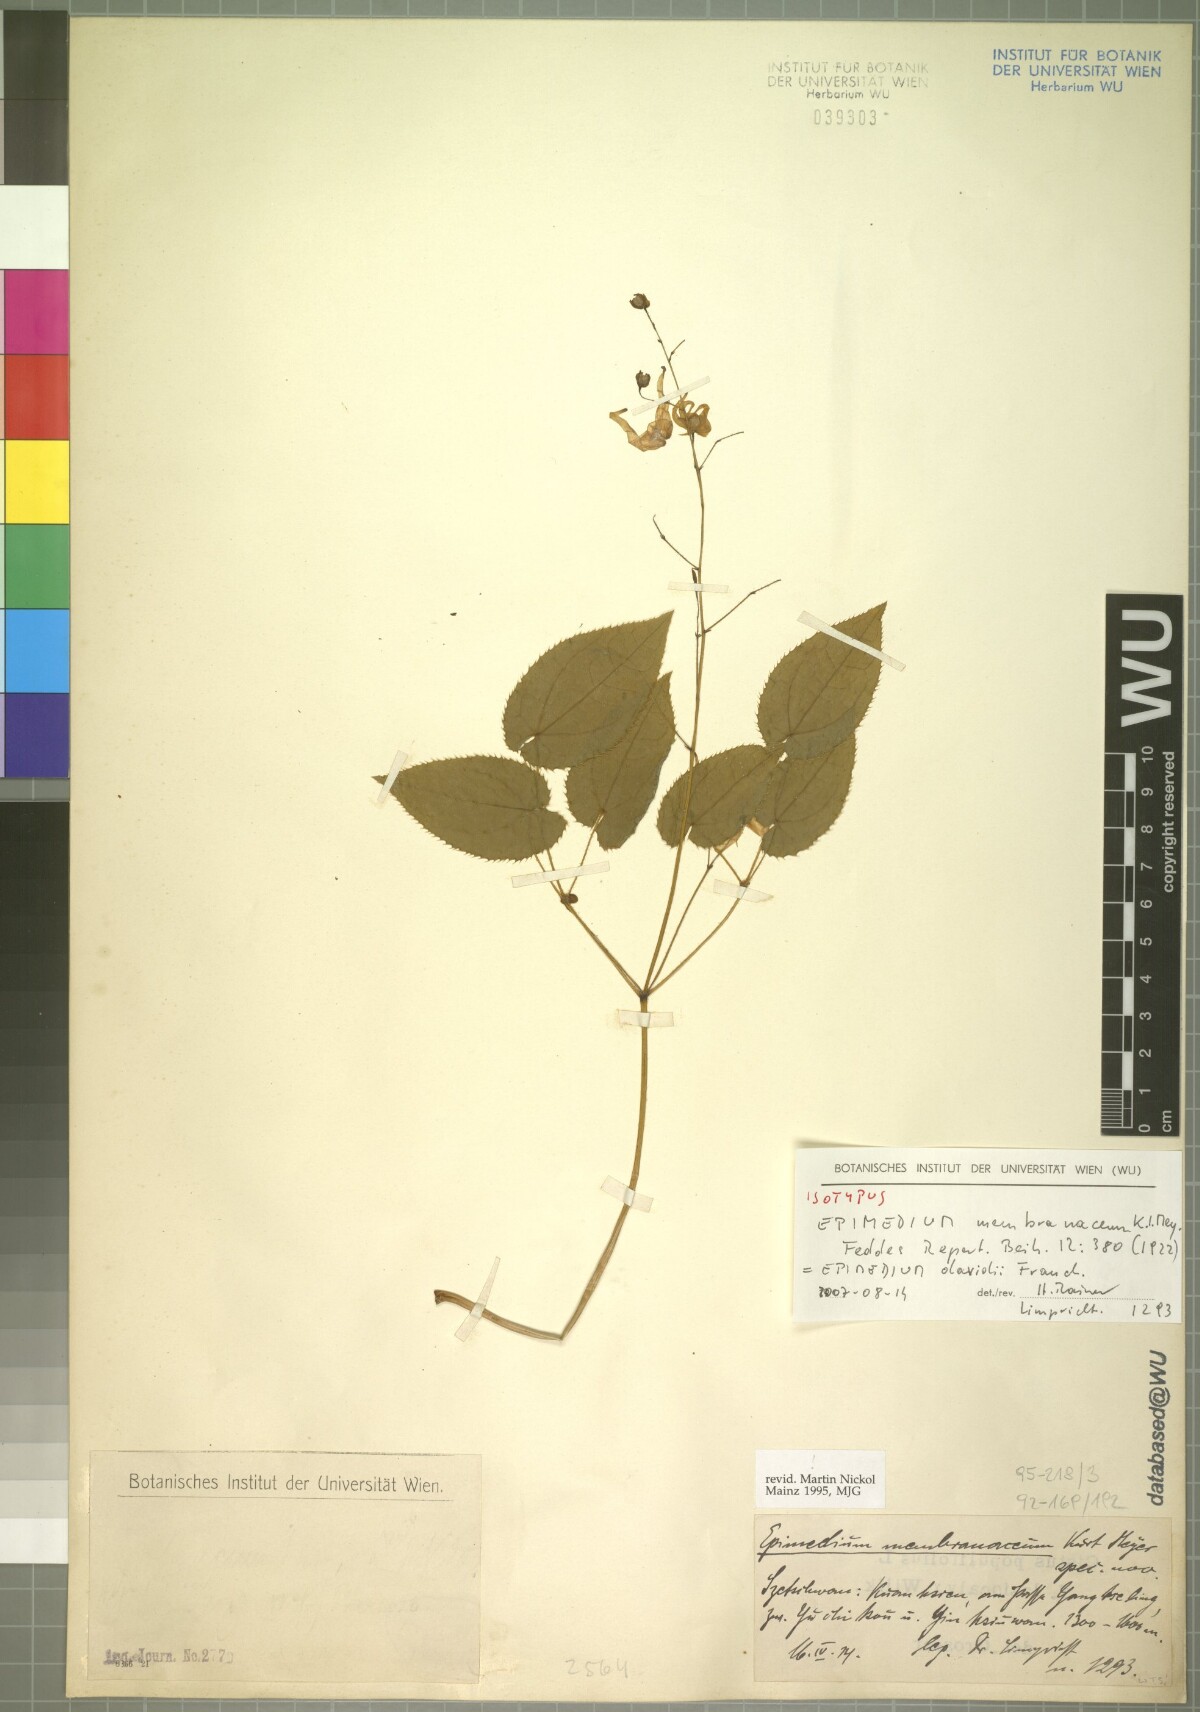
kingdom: Plantae
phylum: Tracheophyta
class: Magnoliopsida
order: Ranunculales
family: Berberidaceae
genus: Epimedium
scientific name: Epimedium davidii
